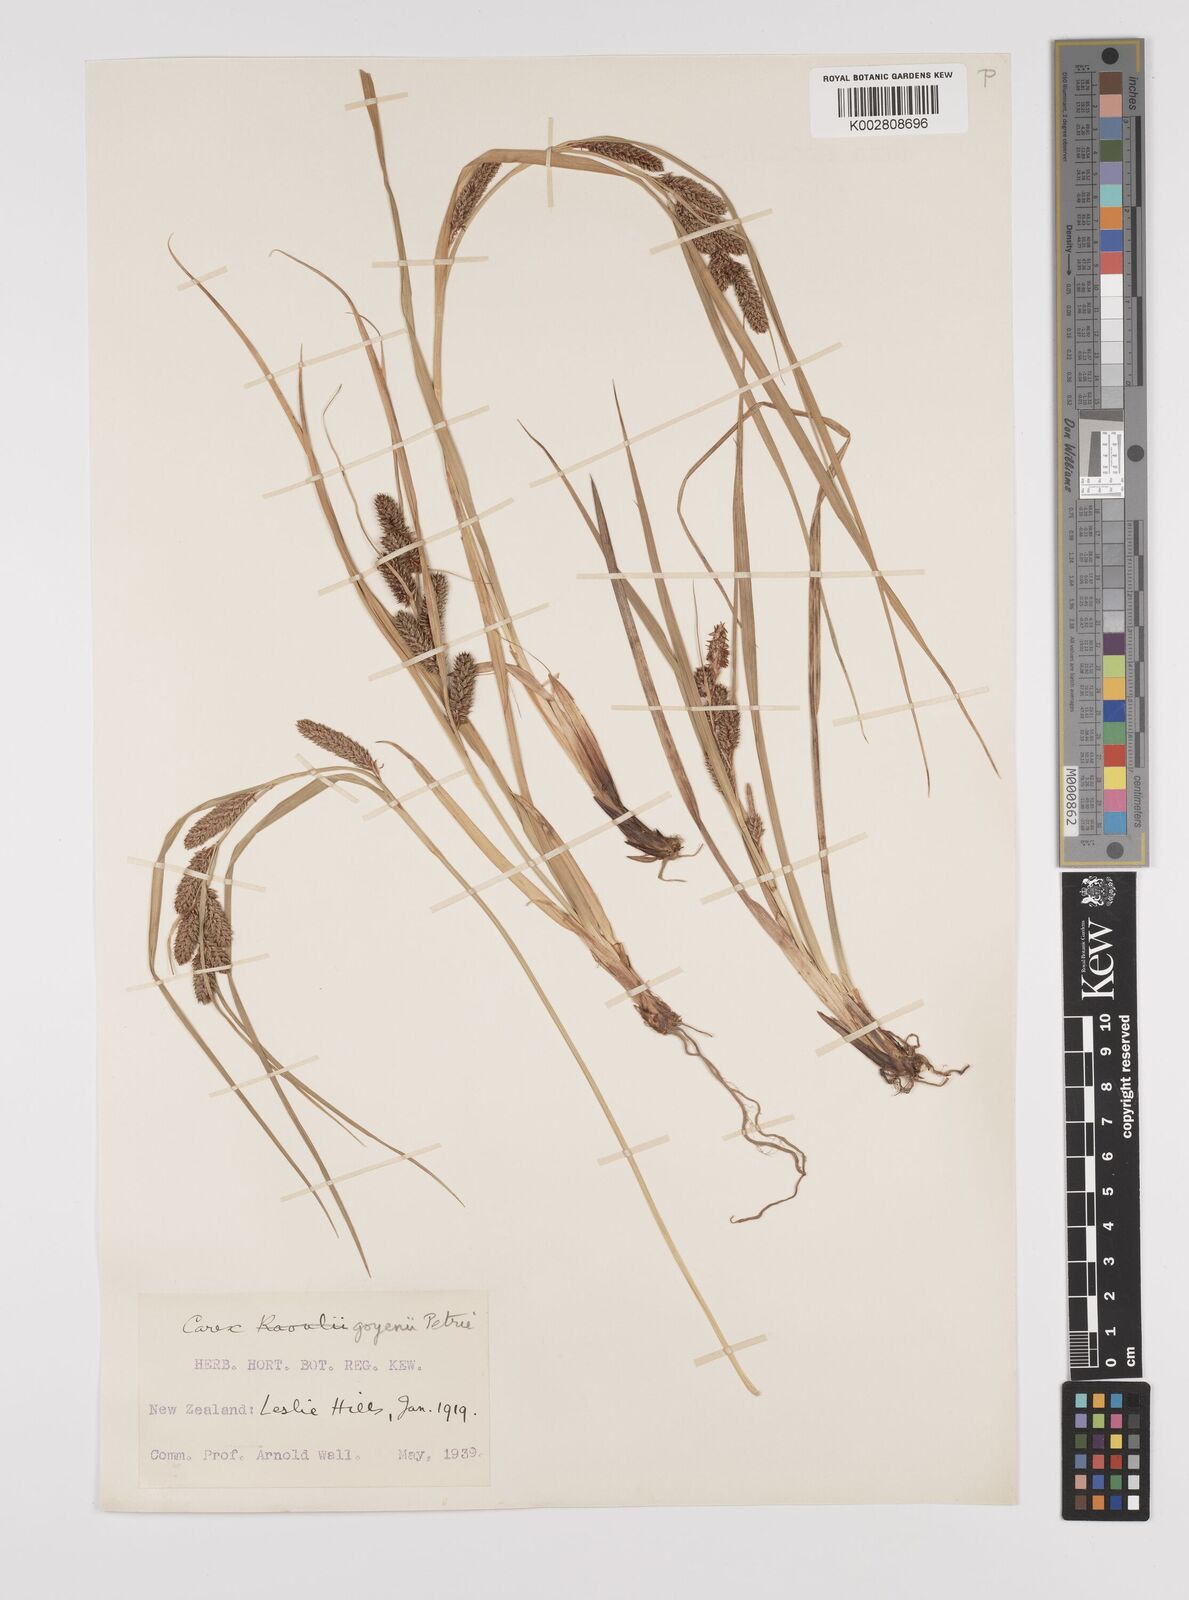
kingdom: Plantae
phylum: Tracheophyta
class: Liliopsida
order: Poales
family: Cyperaceae
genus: Carex
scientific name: Carex goyenii
